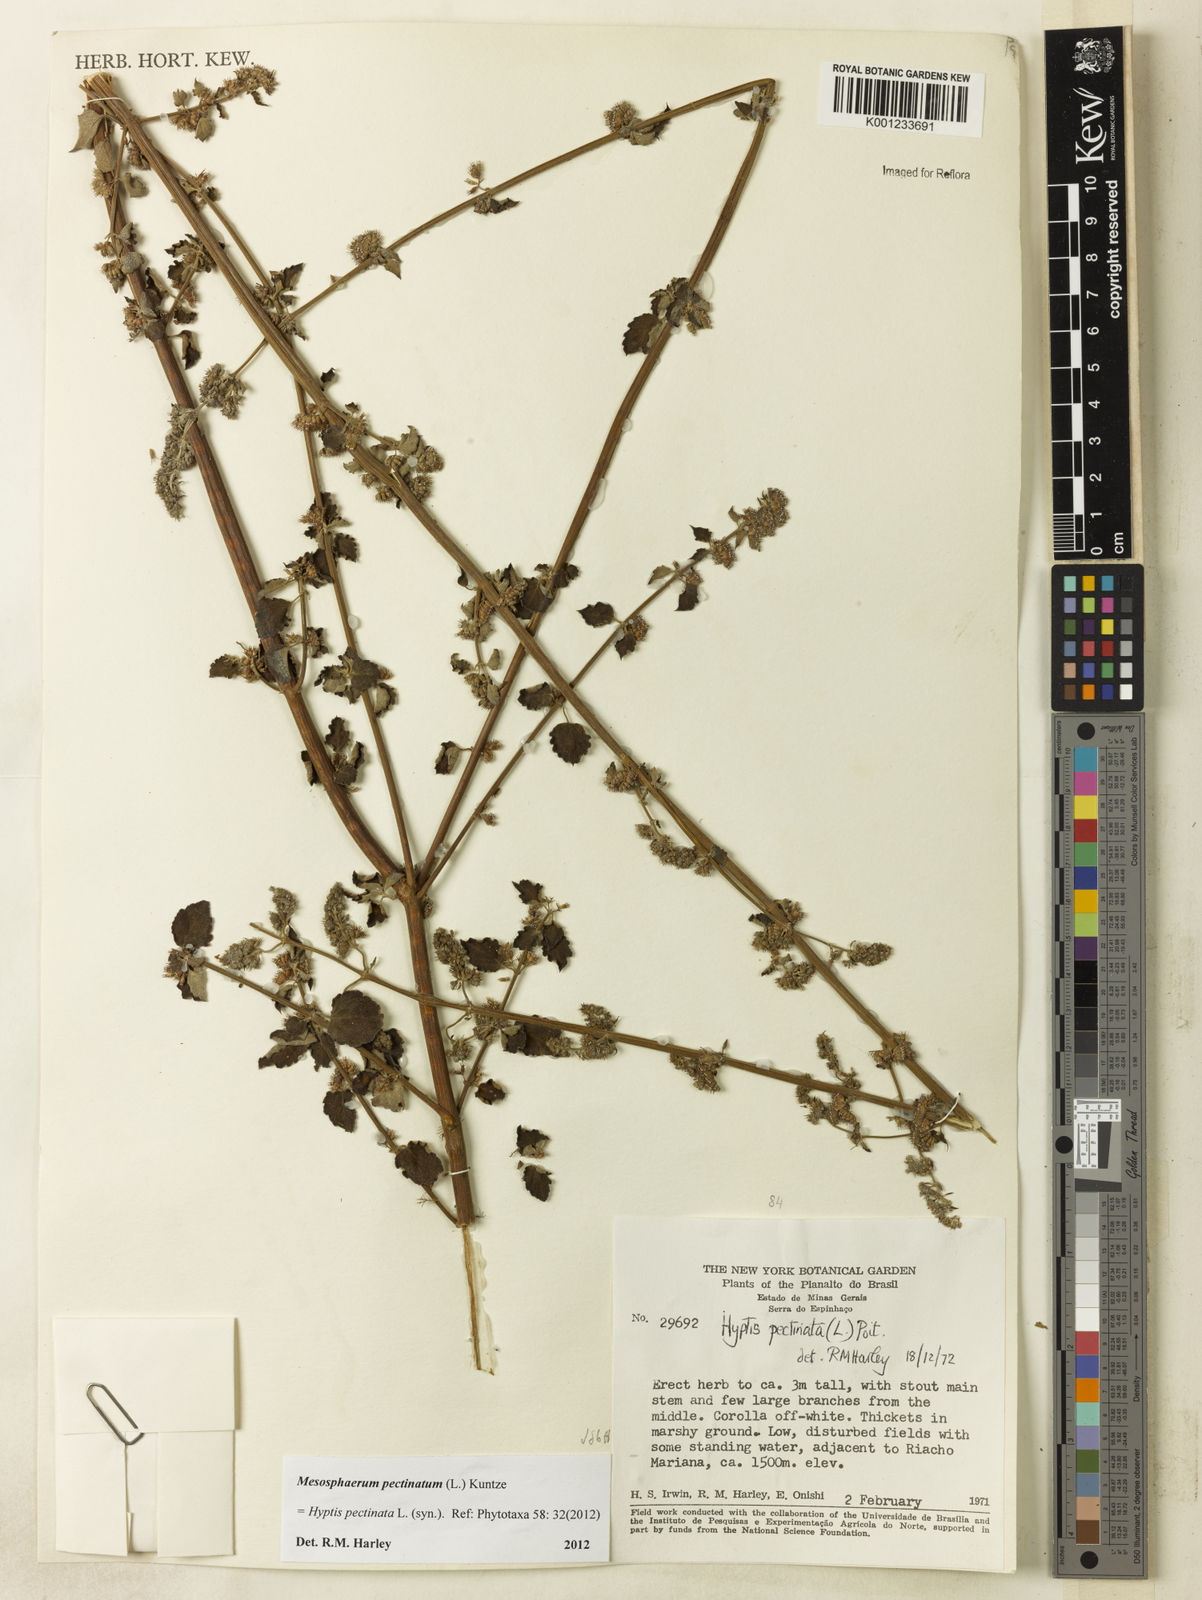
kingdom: Plantae
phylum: Tracheophyta
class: Magnoliopsida
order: Lamiales
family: Lamiaceae
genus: Mesosphaerum
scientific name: Mesosphaerum pectinatum
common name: Comb hyptis
